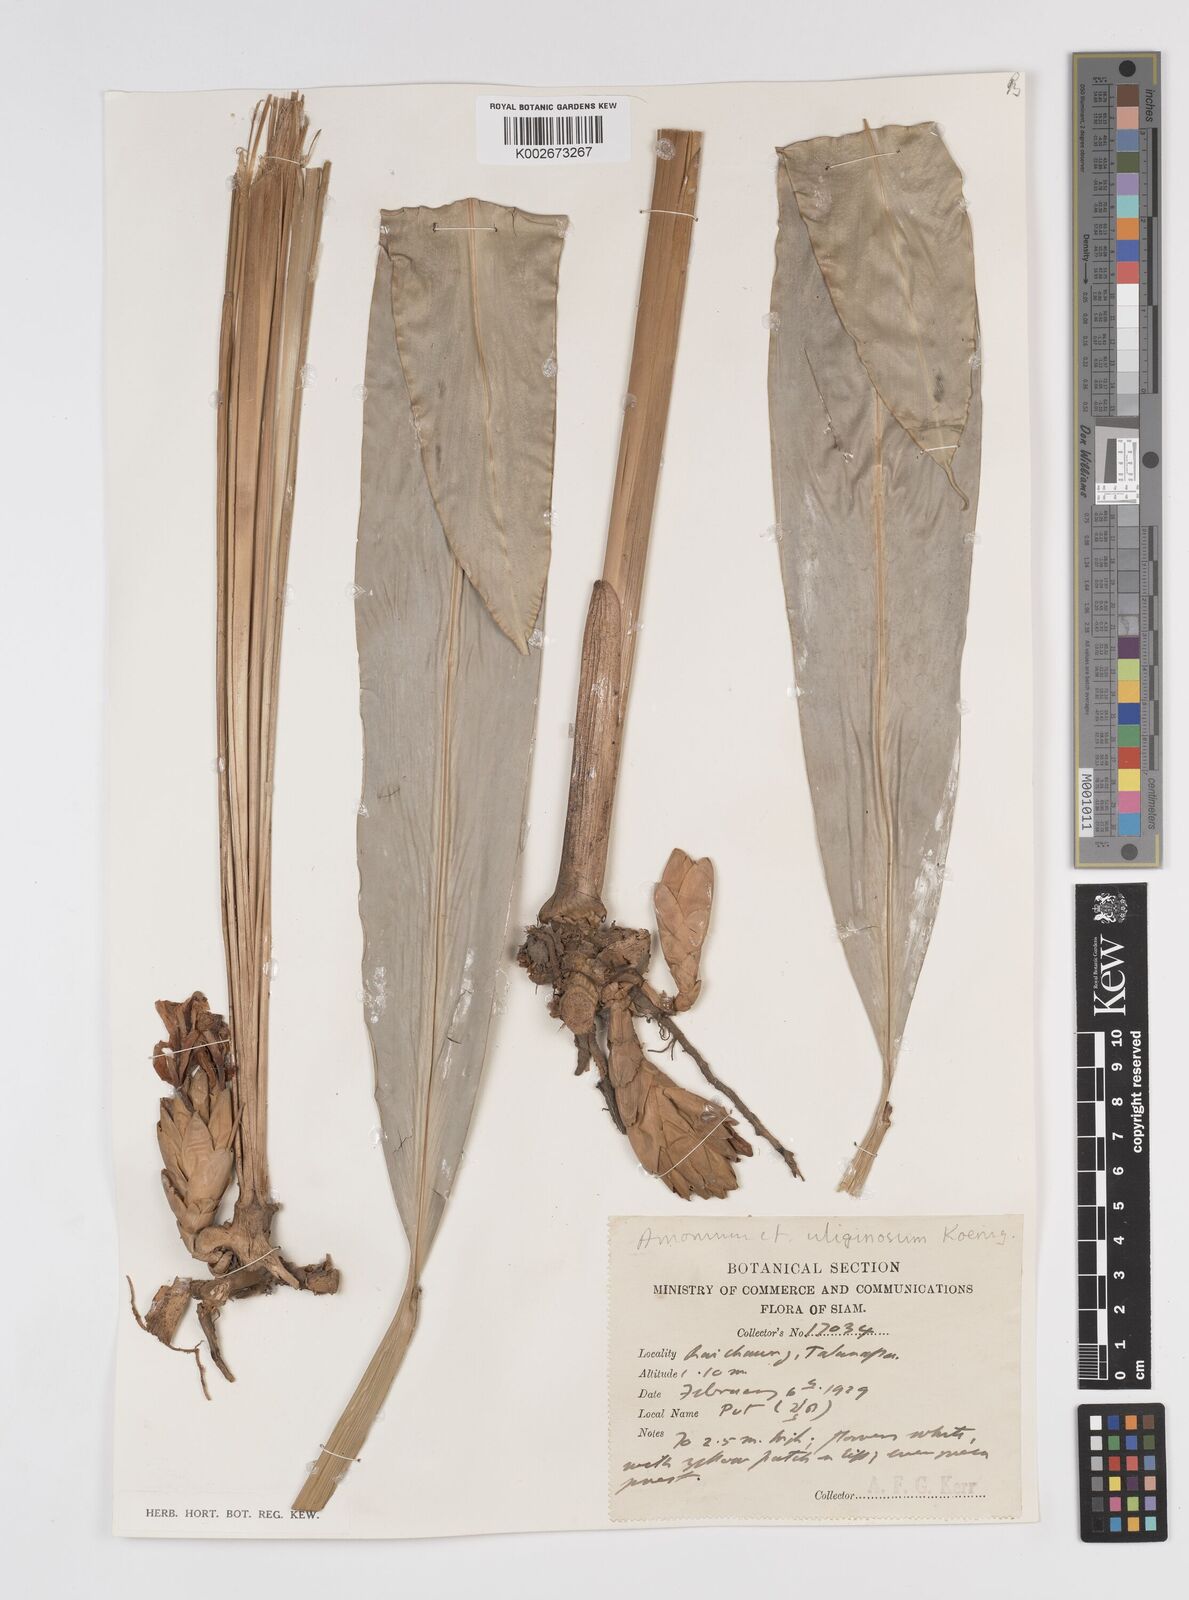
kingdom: Plantae
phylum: Tracheophyta
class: Liliopsida
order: Zingiberales
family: Zingiberaceae
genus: Amomum
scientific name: Amomum
